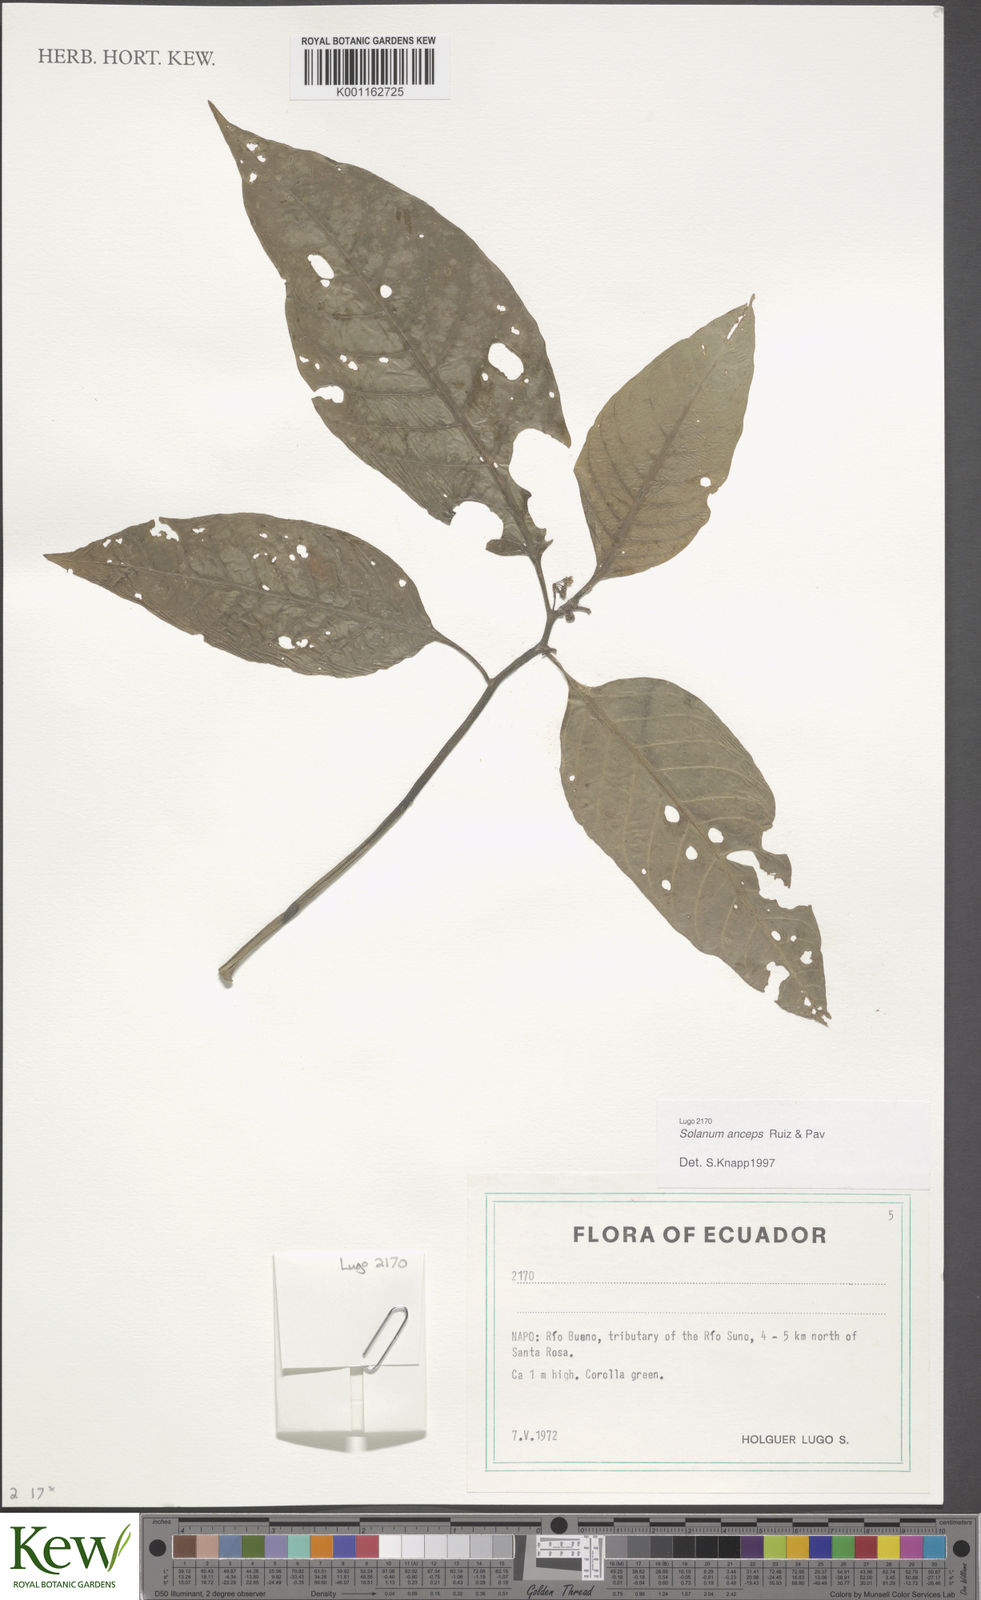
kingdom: Plantae
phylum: Tracheophyta
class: Magnoliopsida
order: Solanales
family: Solanaceae
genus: Solanum
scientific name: Solanum anceps
